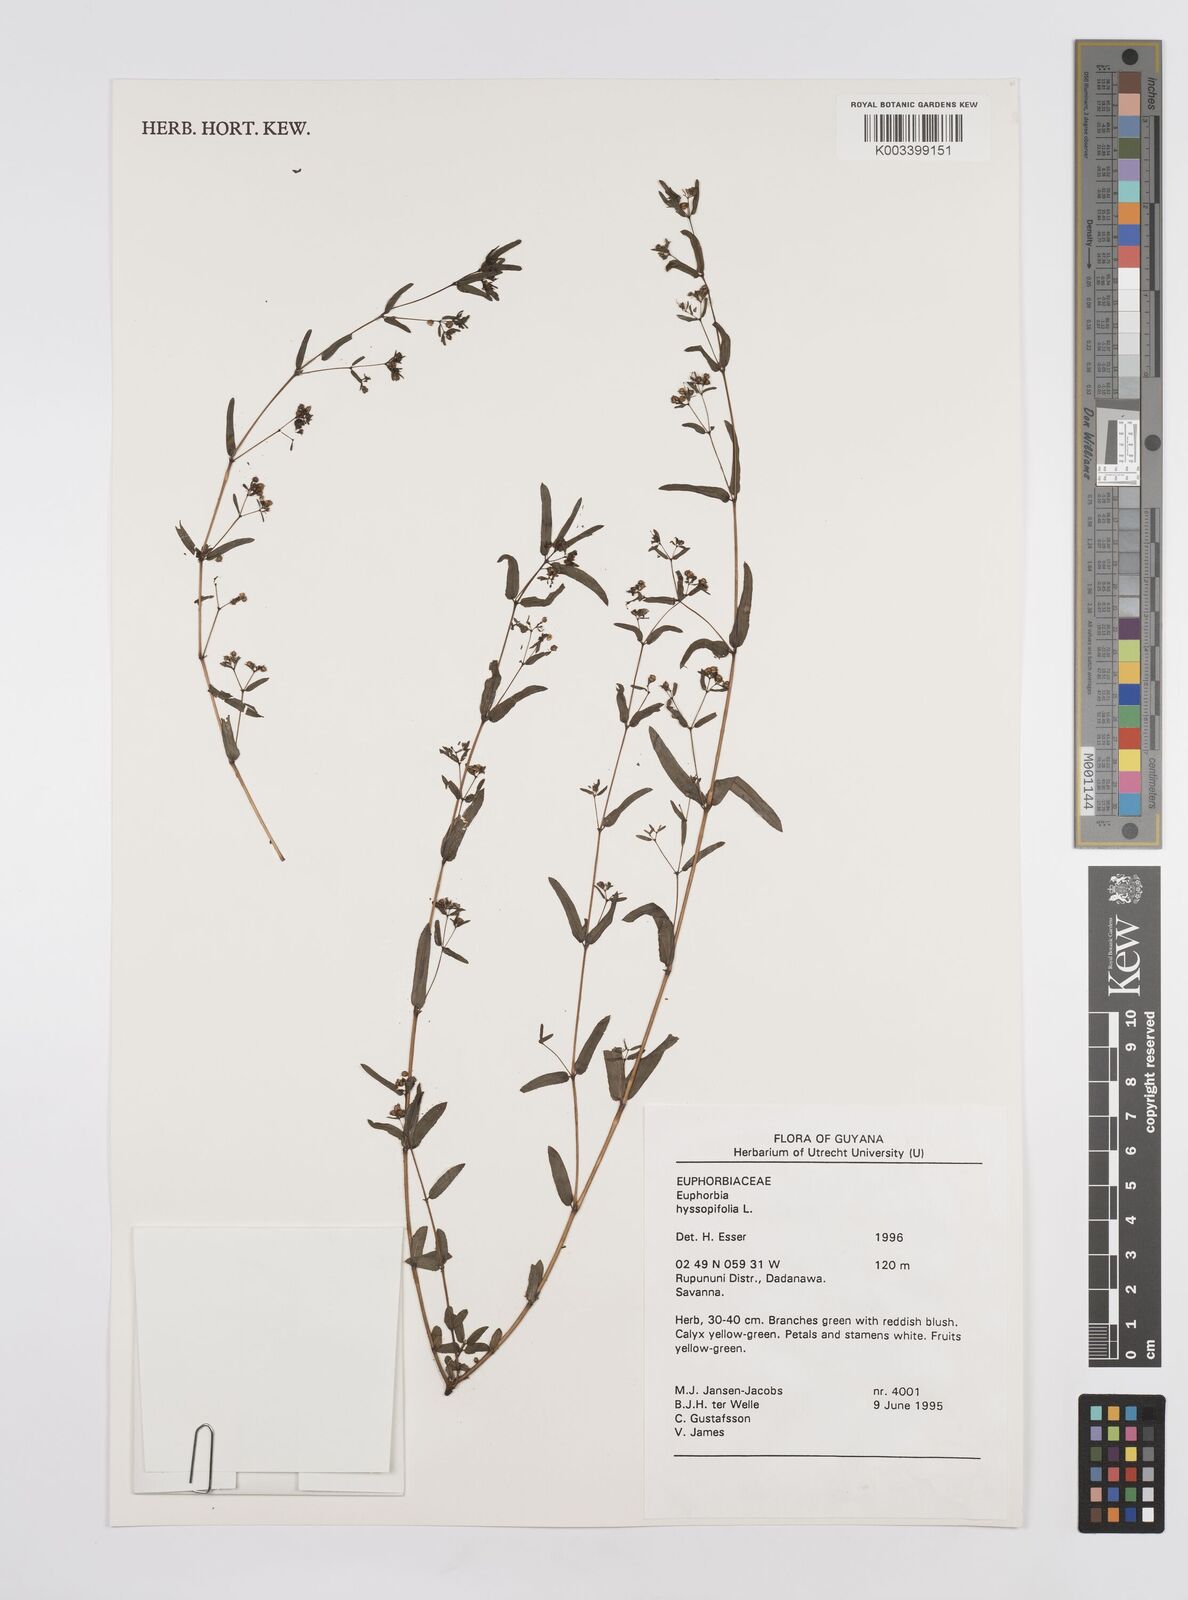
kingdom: Plantae
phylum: Tracheophyta
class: Magnoliopsida
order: Malpighiales
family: Euphorbiaceae
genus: Euphorbia
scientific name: Euphorbia hyssopifolia
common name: Hyssopleaf sandmat
